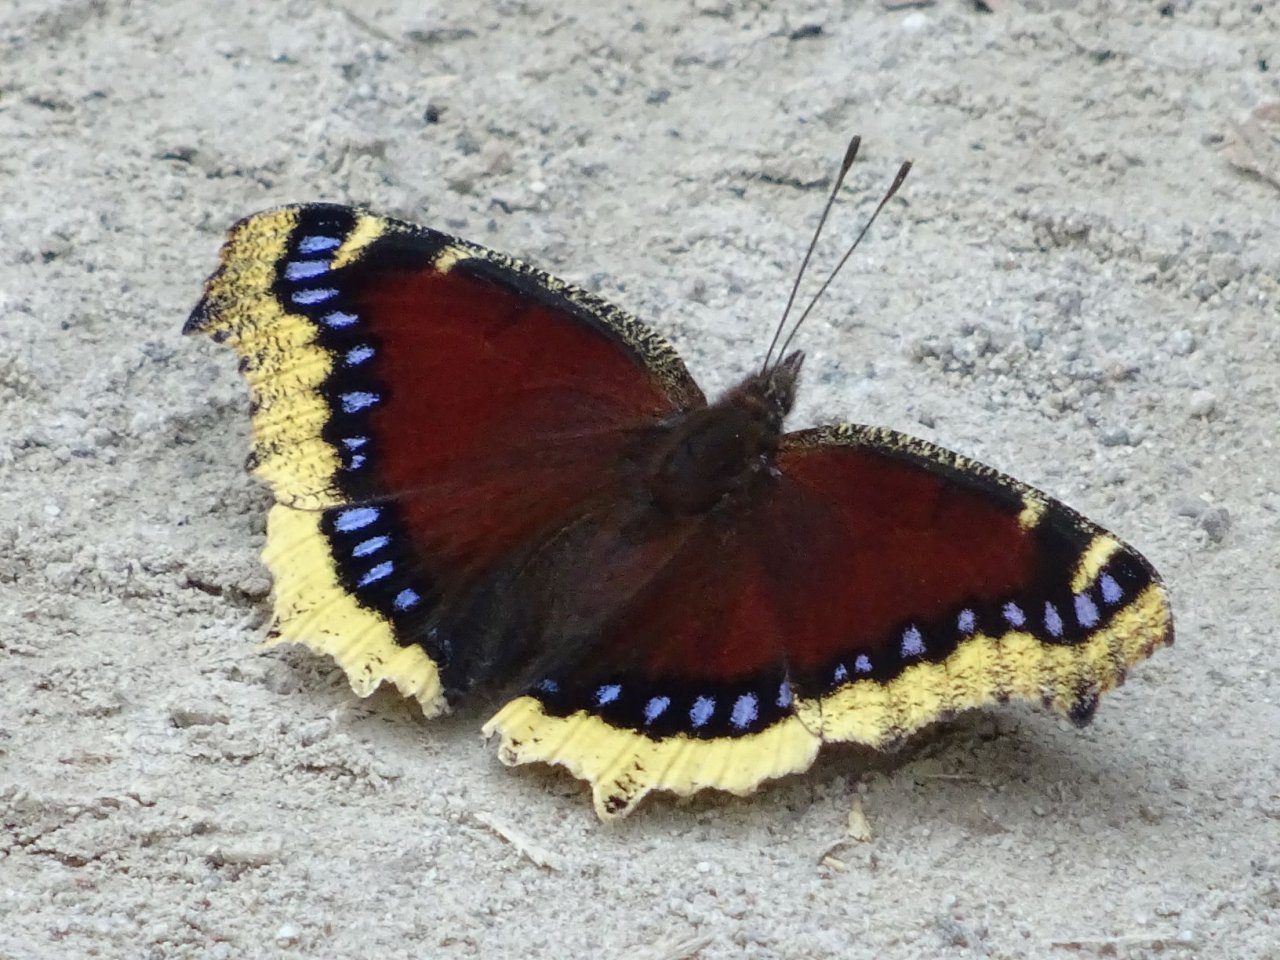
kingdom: Animalia
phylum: Arthropoda
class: Insecta
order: Lepidoptera
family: Nymphalidae
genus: Nymphalis
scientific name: Nymphalis antiopa
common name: Mourning Cloak
